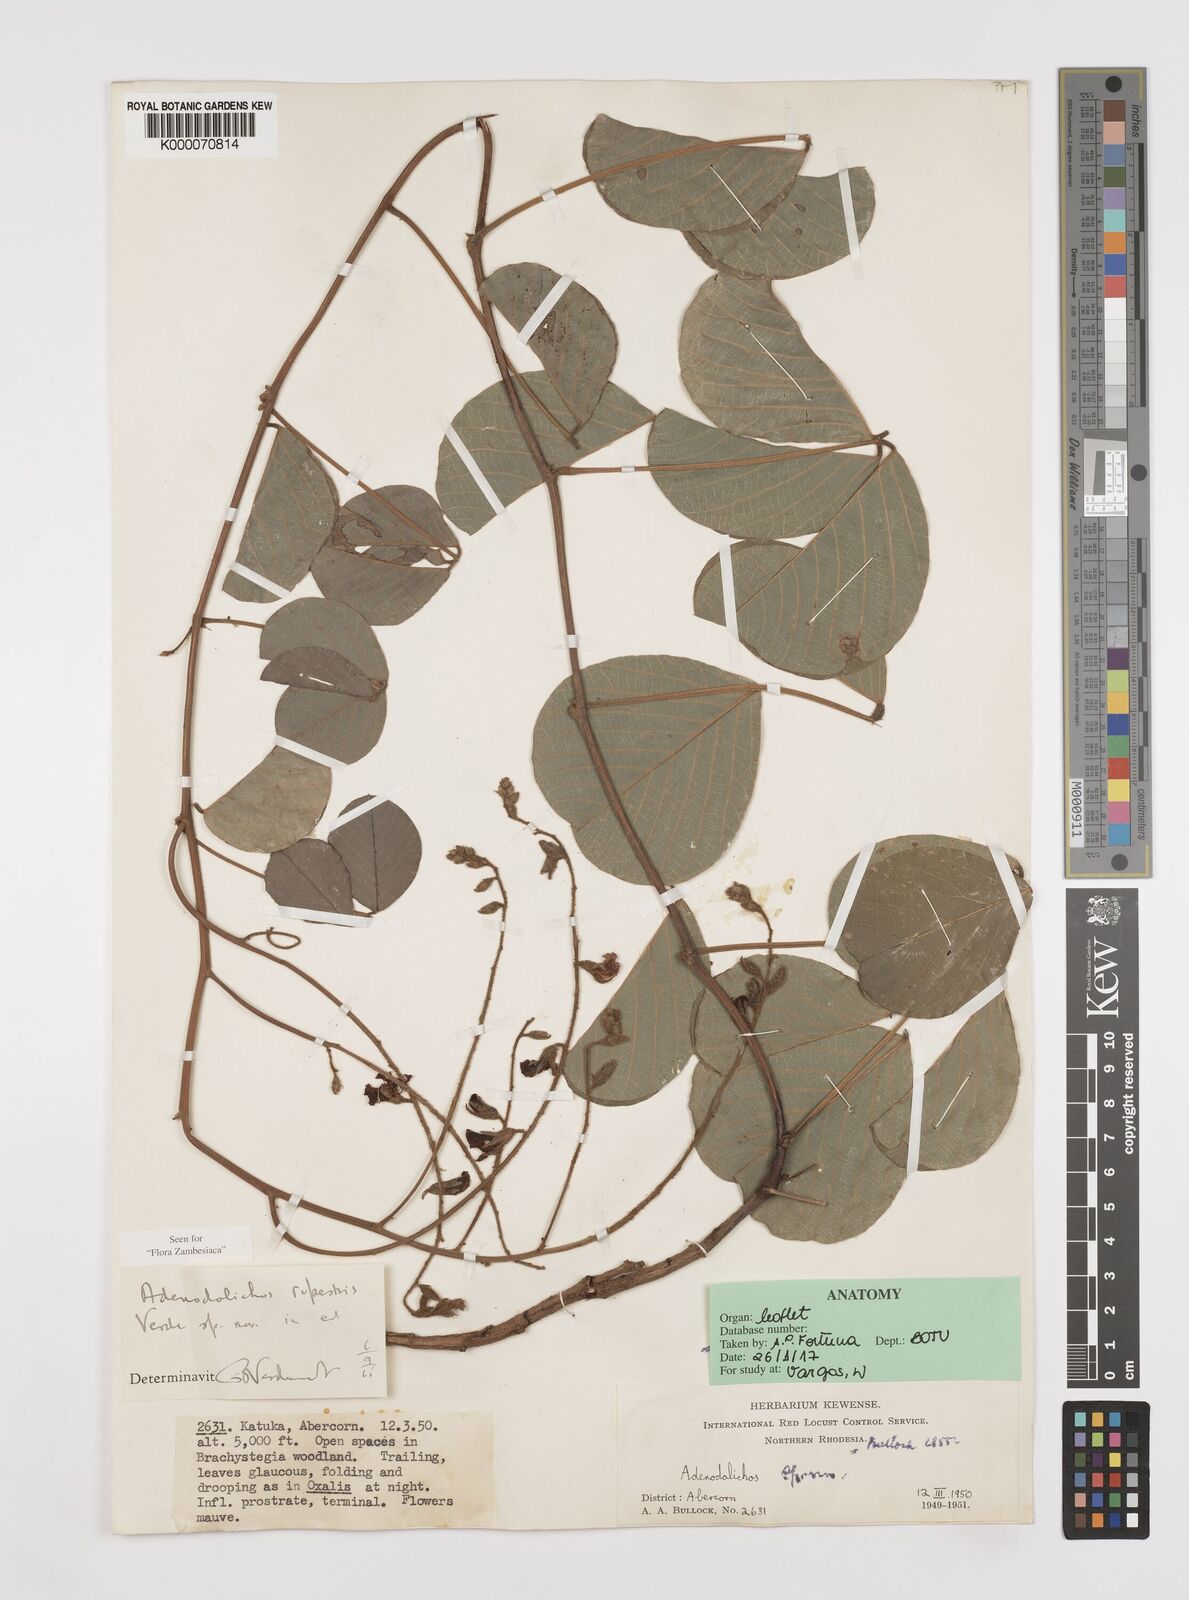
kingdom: Plantae
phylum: Tracheophyta
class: Magnoliopsida
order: Fabales
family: Fabaceae
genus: Adenodolichos
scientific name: Adenodolichos rupestris
